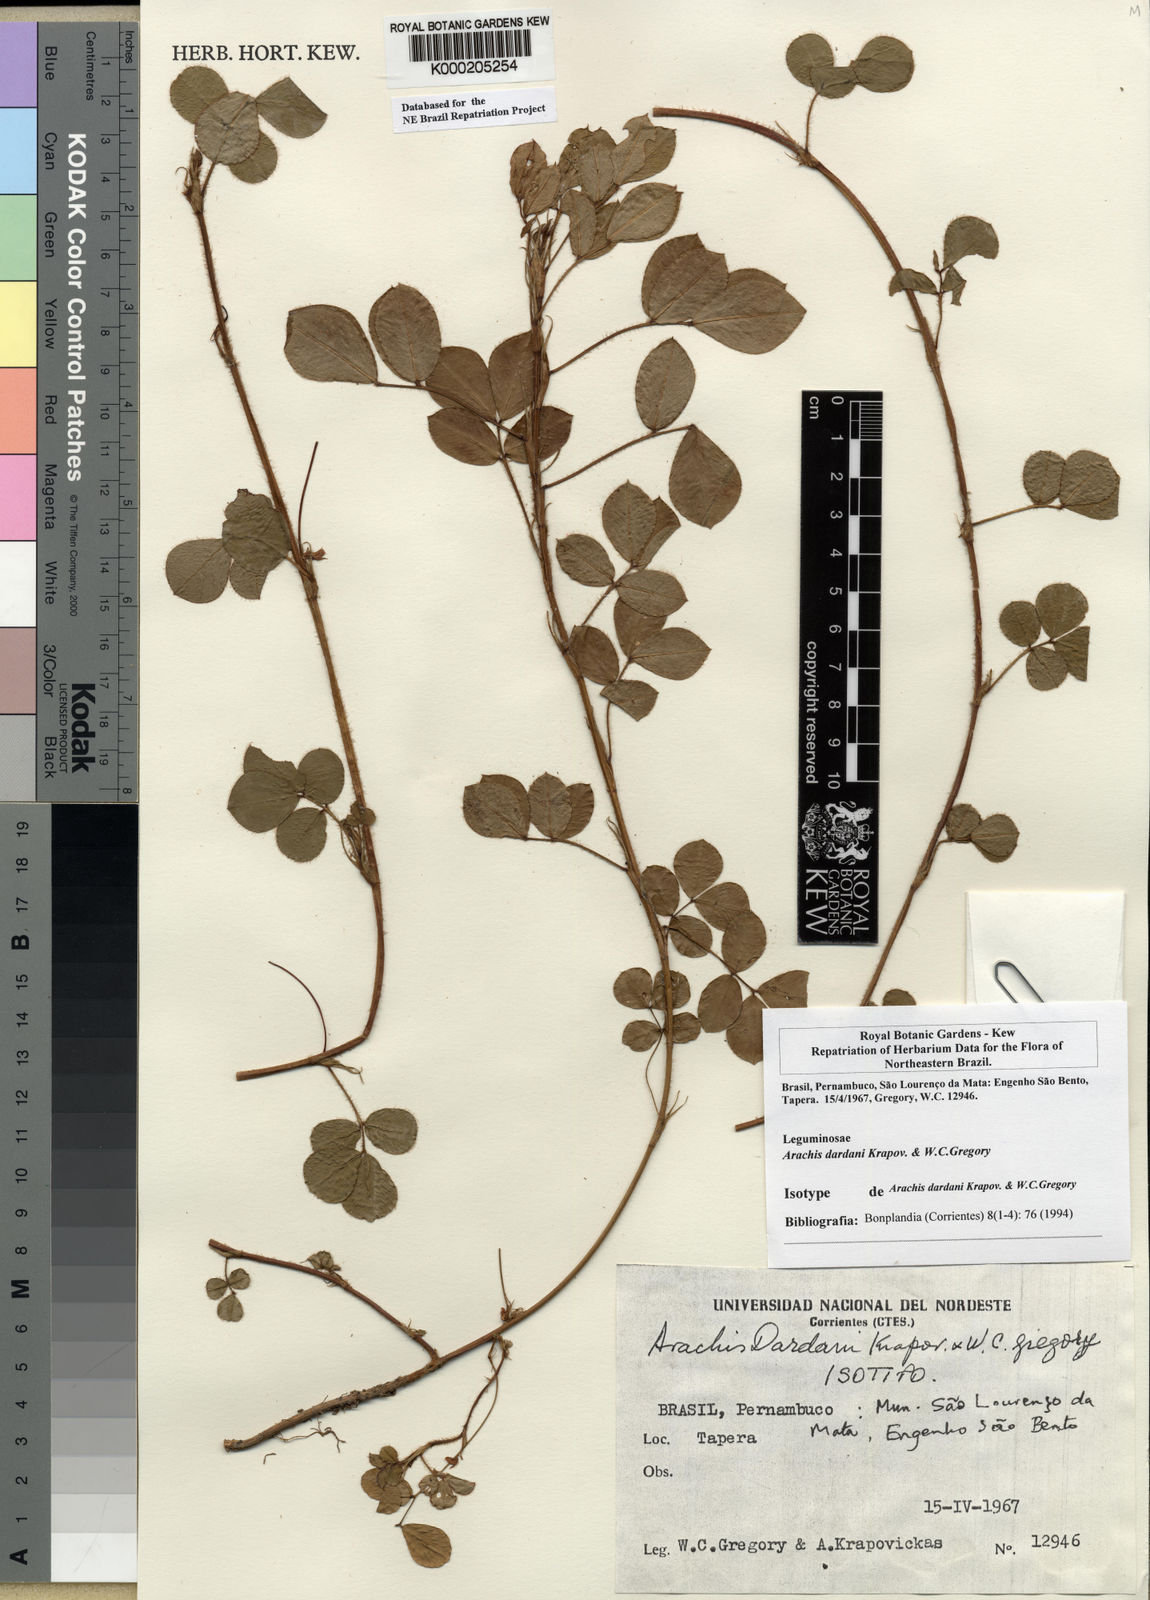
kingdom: Plantae
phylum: Tracheophyta
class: Magnoliopsida
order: Fabales
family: Fabaceae
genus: Arachis
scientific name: Arachis
